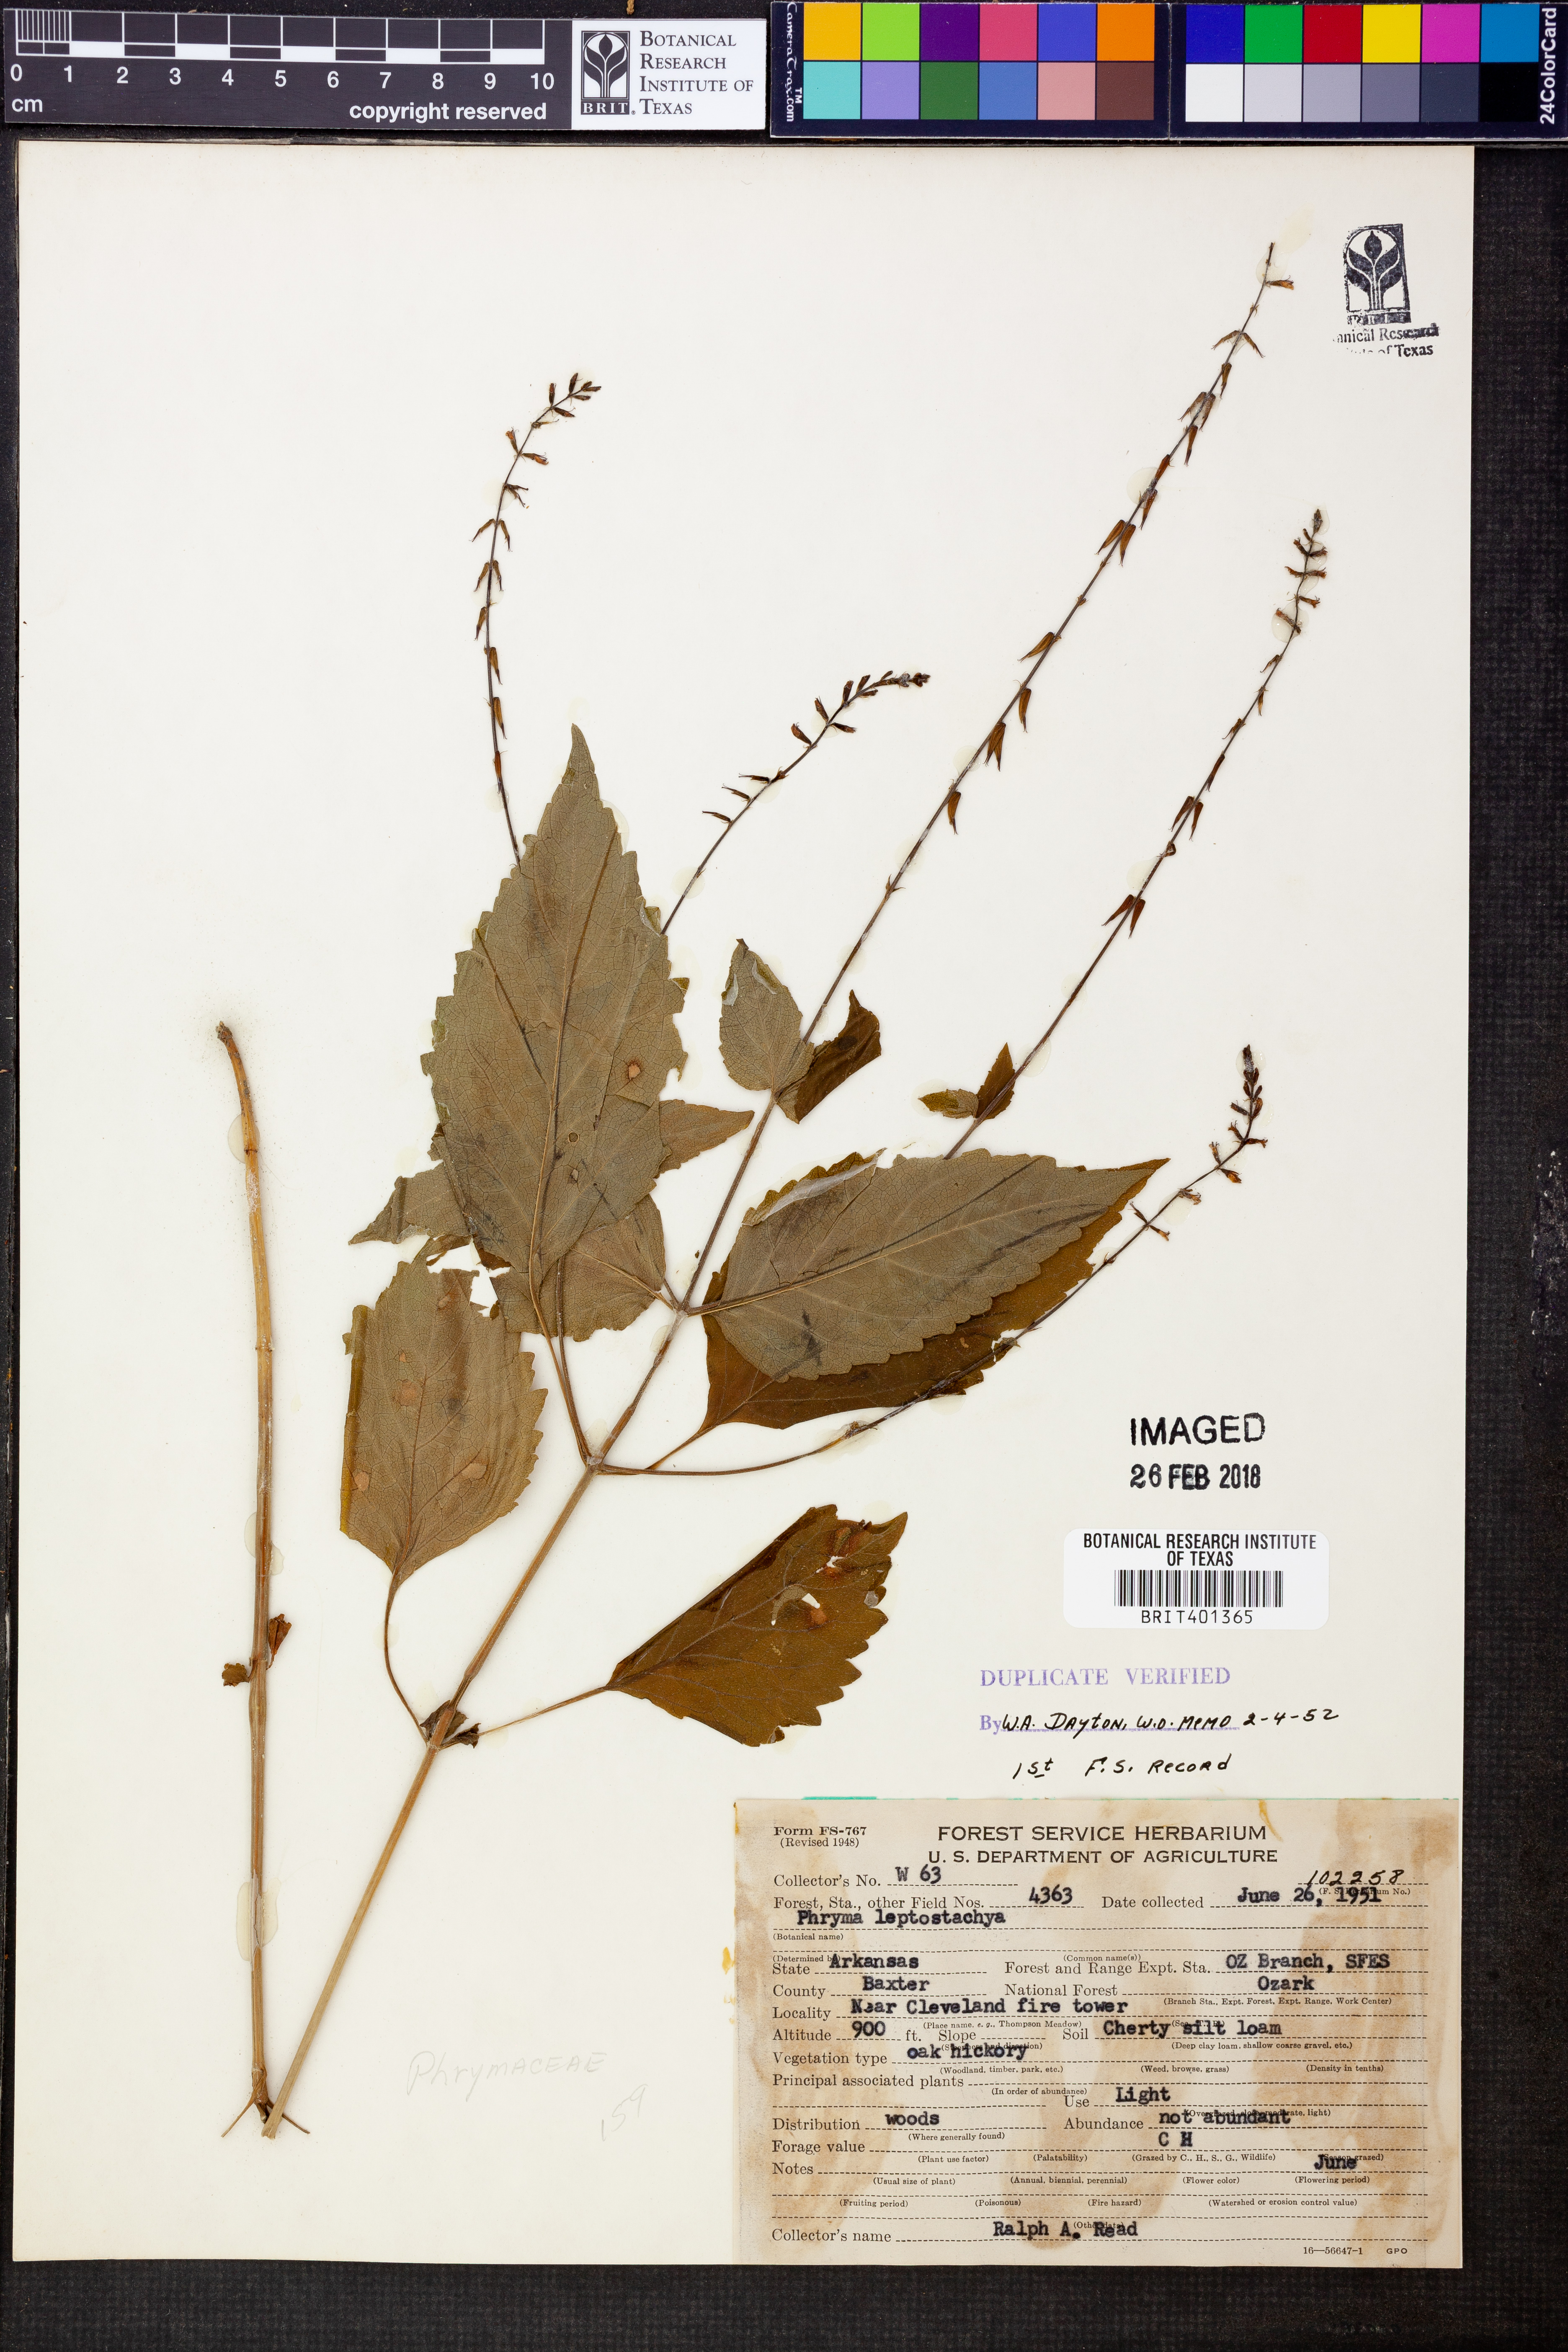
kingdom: Plantae
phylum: Tracheophyta
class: Magnoliopsida
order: Lamiales
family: Phrymaceae
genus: Phryma
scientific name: Phryma leptostachya
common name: American lopseed
